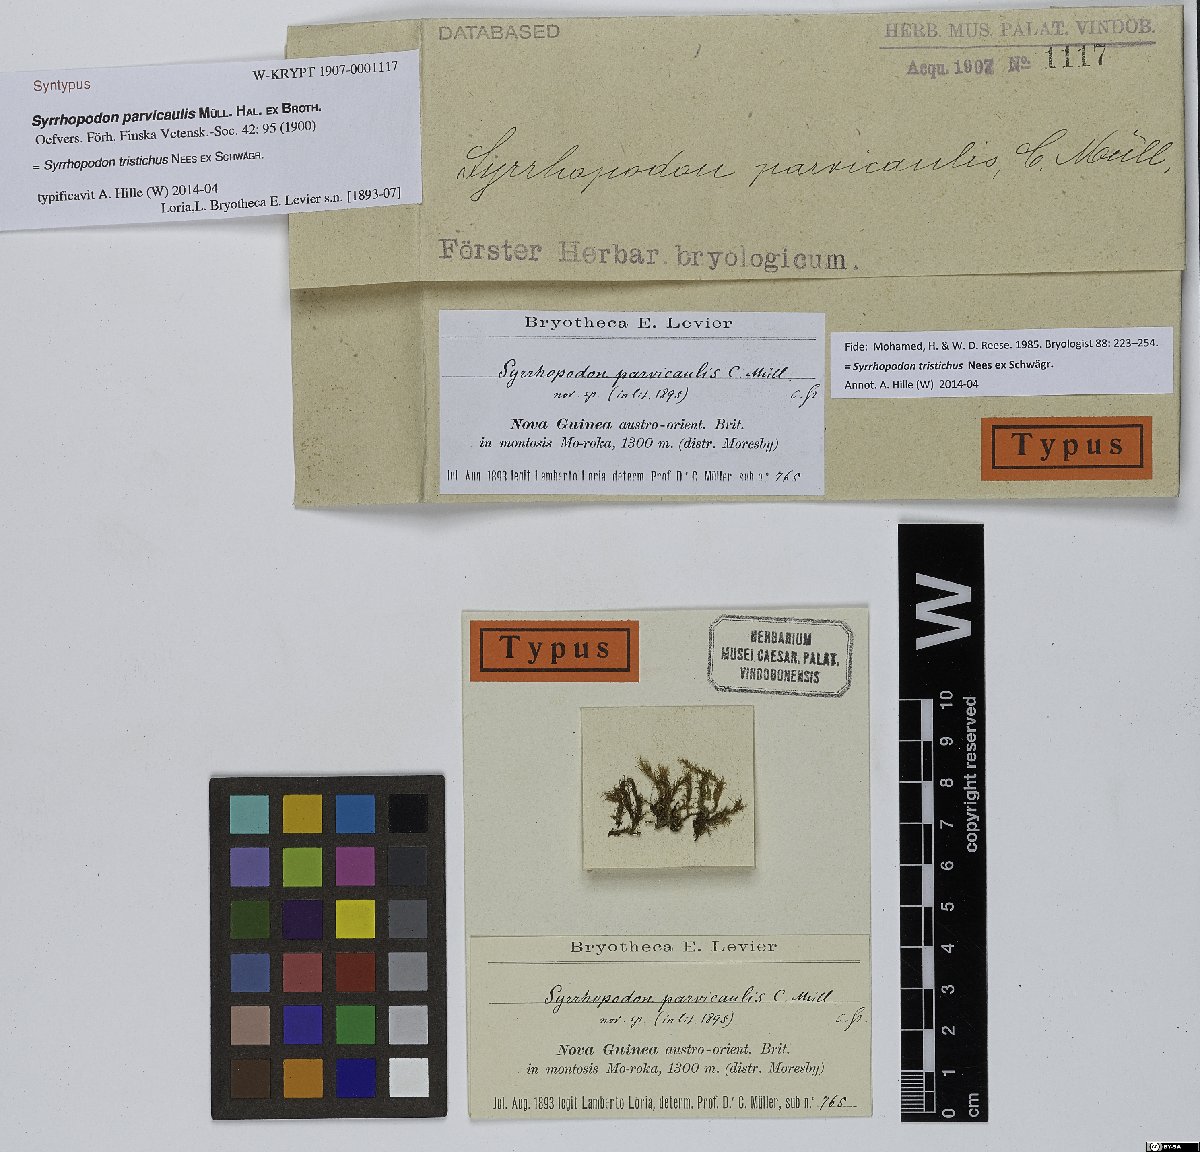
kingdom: Plantae
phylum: Bryophyta
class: Bryopsida
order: Dicranales
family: Calymperaceae
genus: Syrrhopodon
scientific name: Syrrhopodon tristichus
